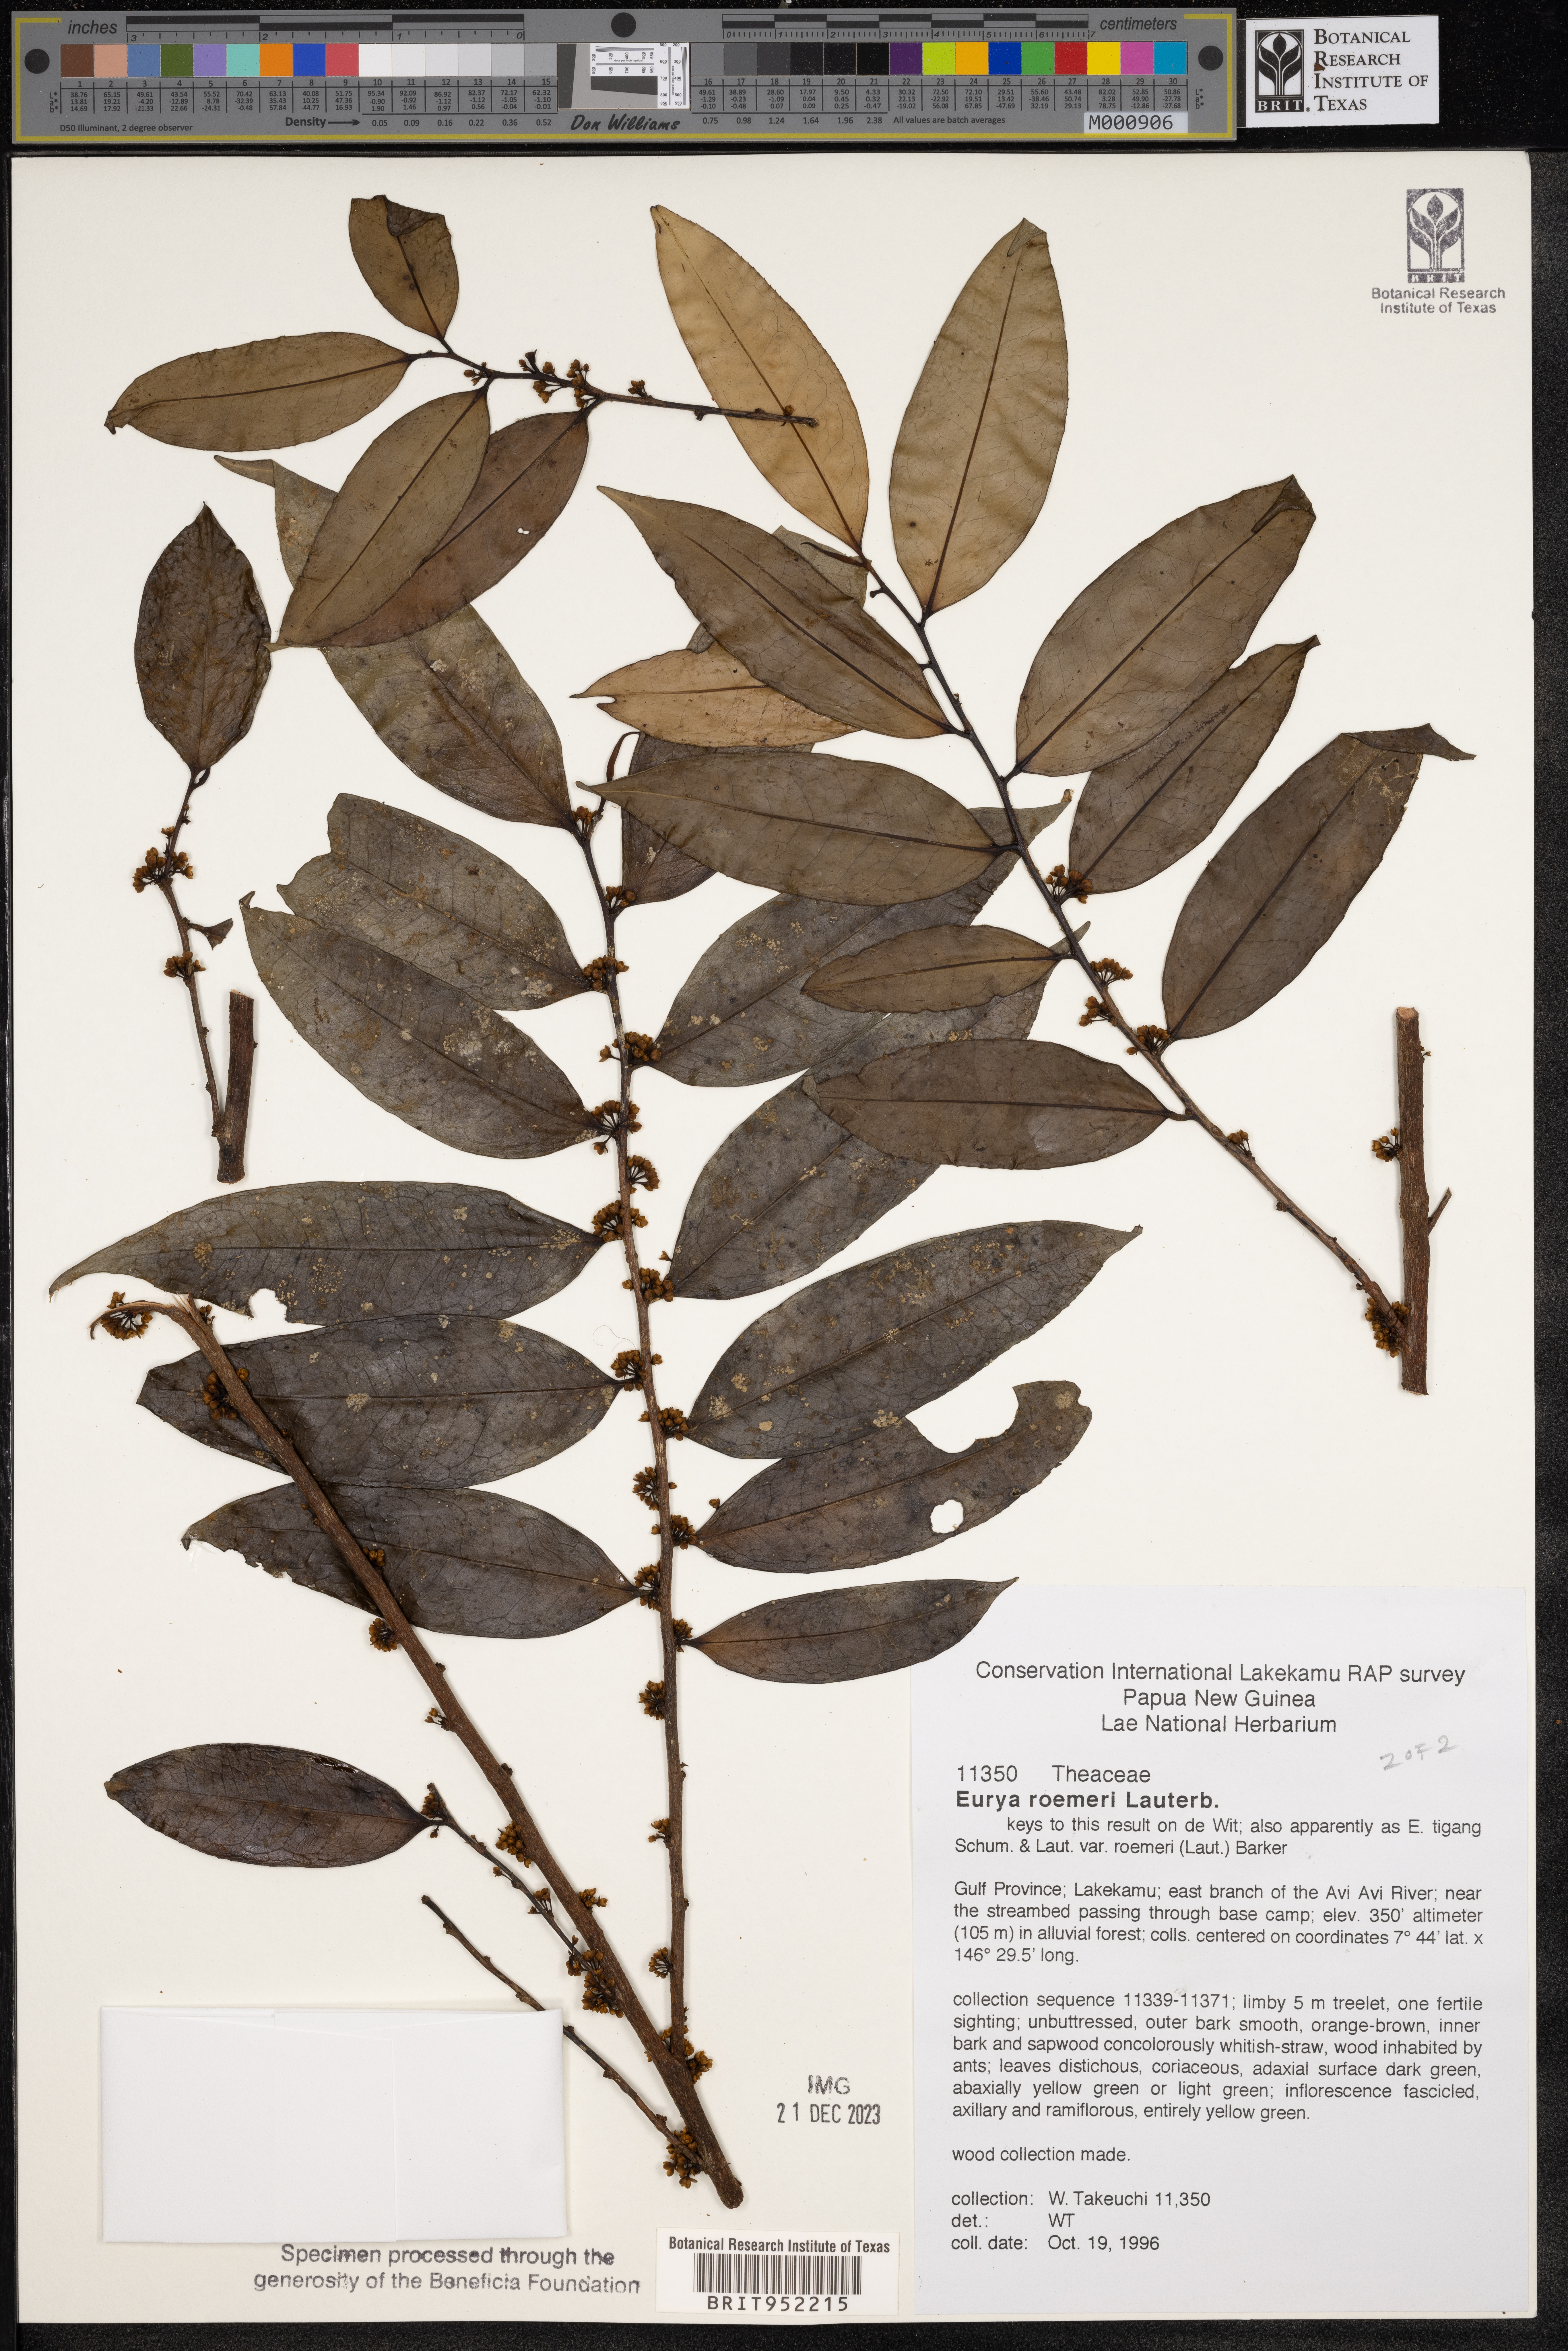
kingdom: Plantae
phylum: Tracheophyta
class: Magnoliopsida
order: Ericales
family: Pentaphylacaceae
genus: Eurya
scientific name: Eurya
